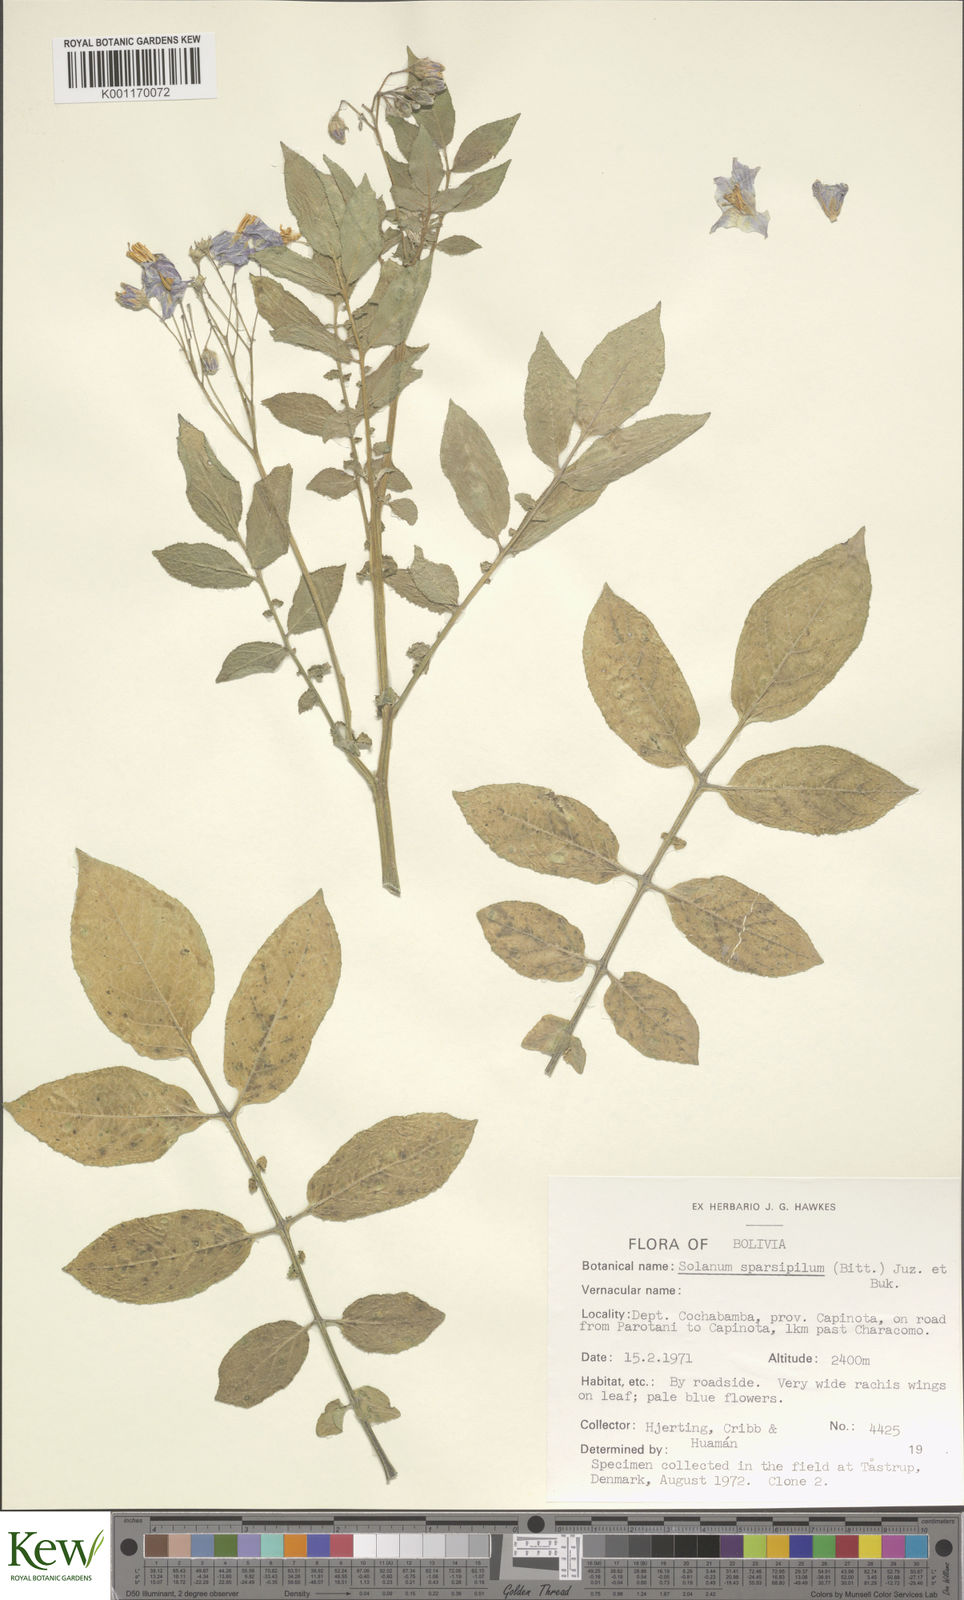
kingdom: Plantae
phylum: Tracheophyta
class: Magnoliopsida
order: Solanales
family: Solanaceae
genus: Solanum
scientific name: Solanum brevicaule
